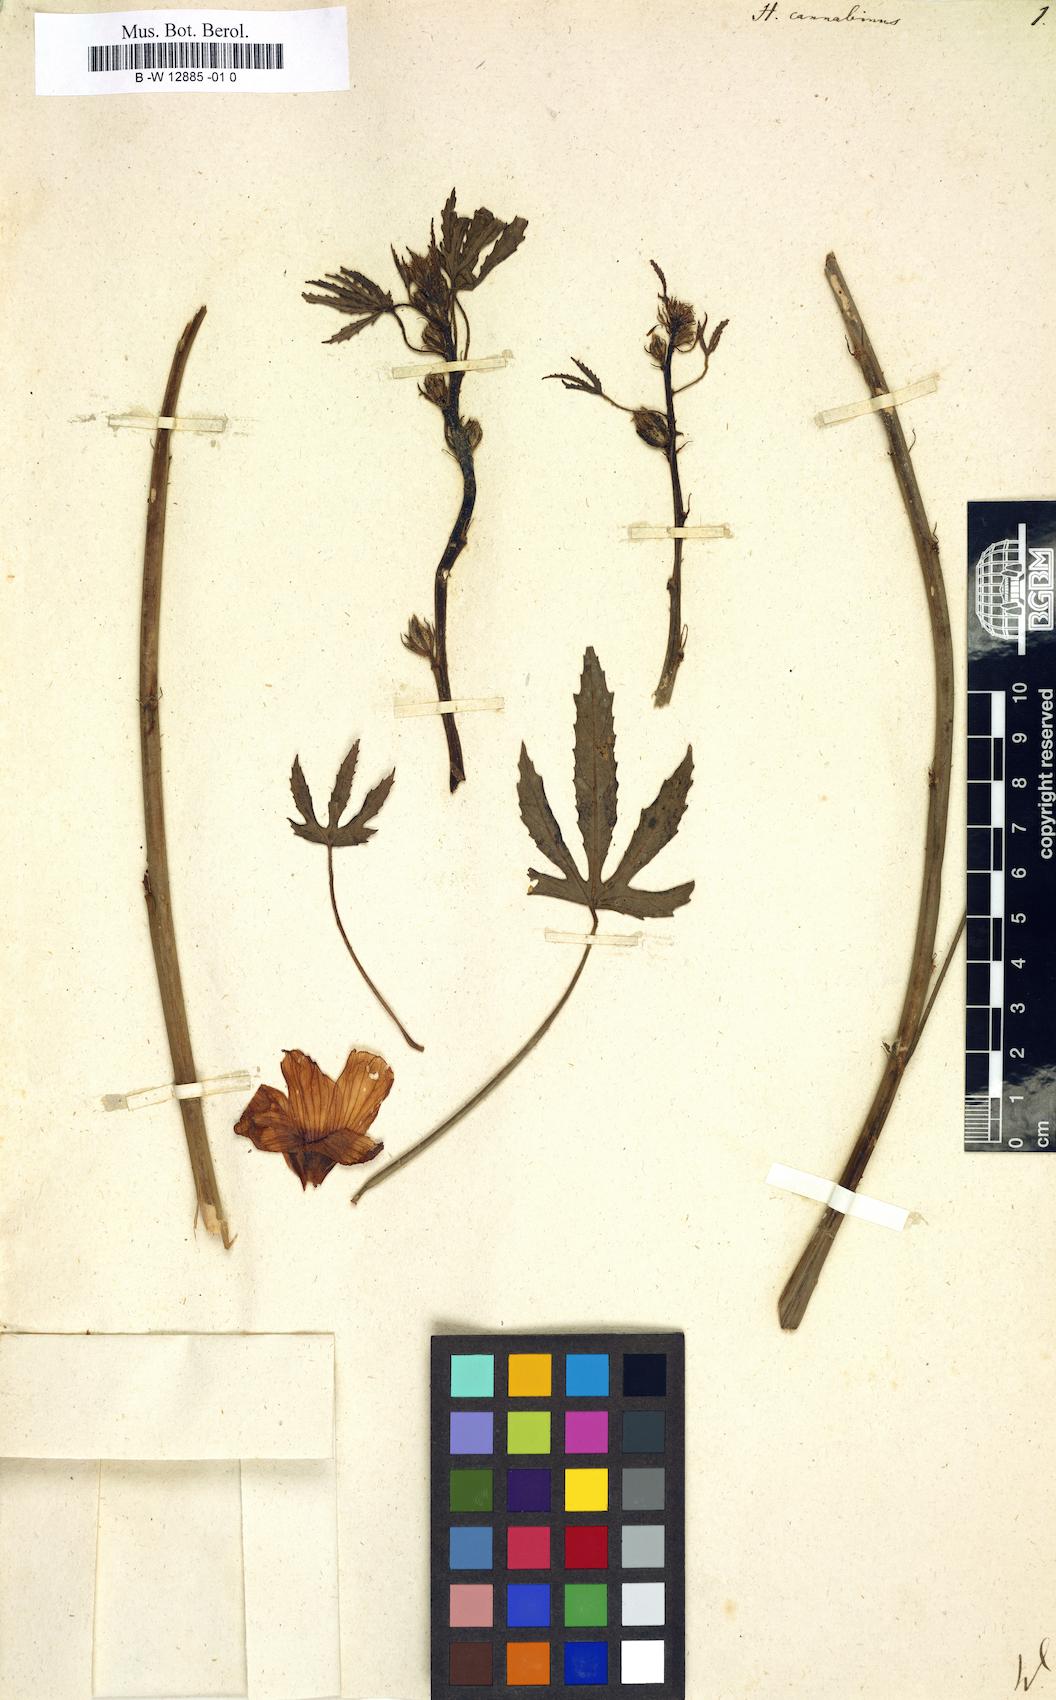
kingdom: Plantae
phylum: Tracheophyta
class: Magnoliopsida
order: Malvales
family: Malvaceae
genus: Hibiscus
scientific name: Hibiscus cannabinus
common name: Brown indianhemp
